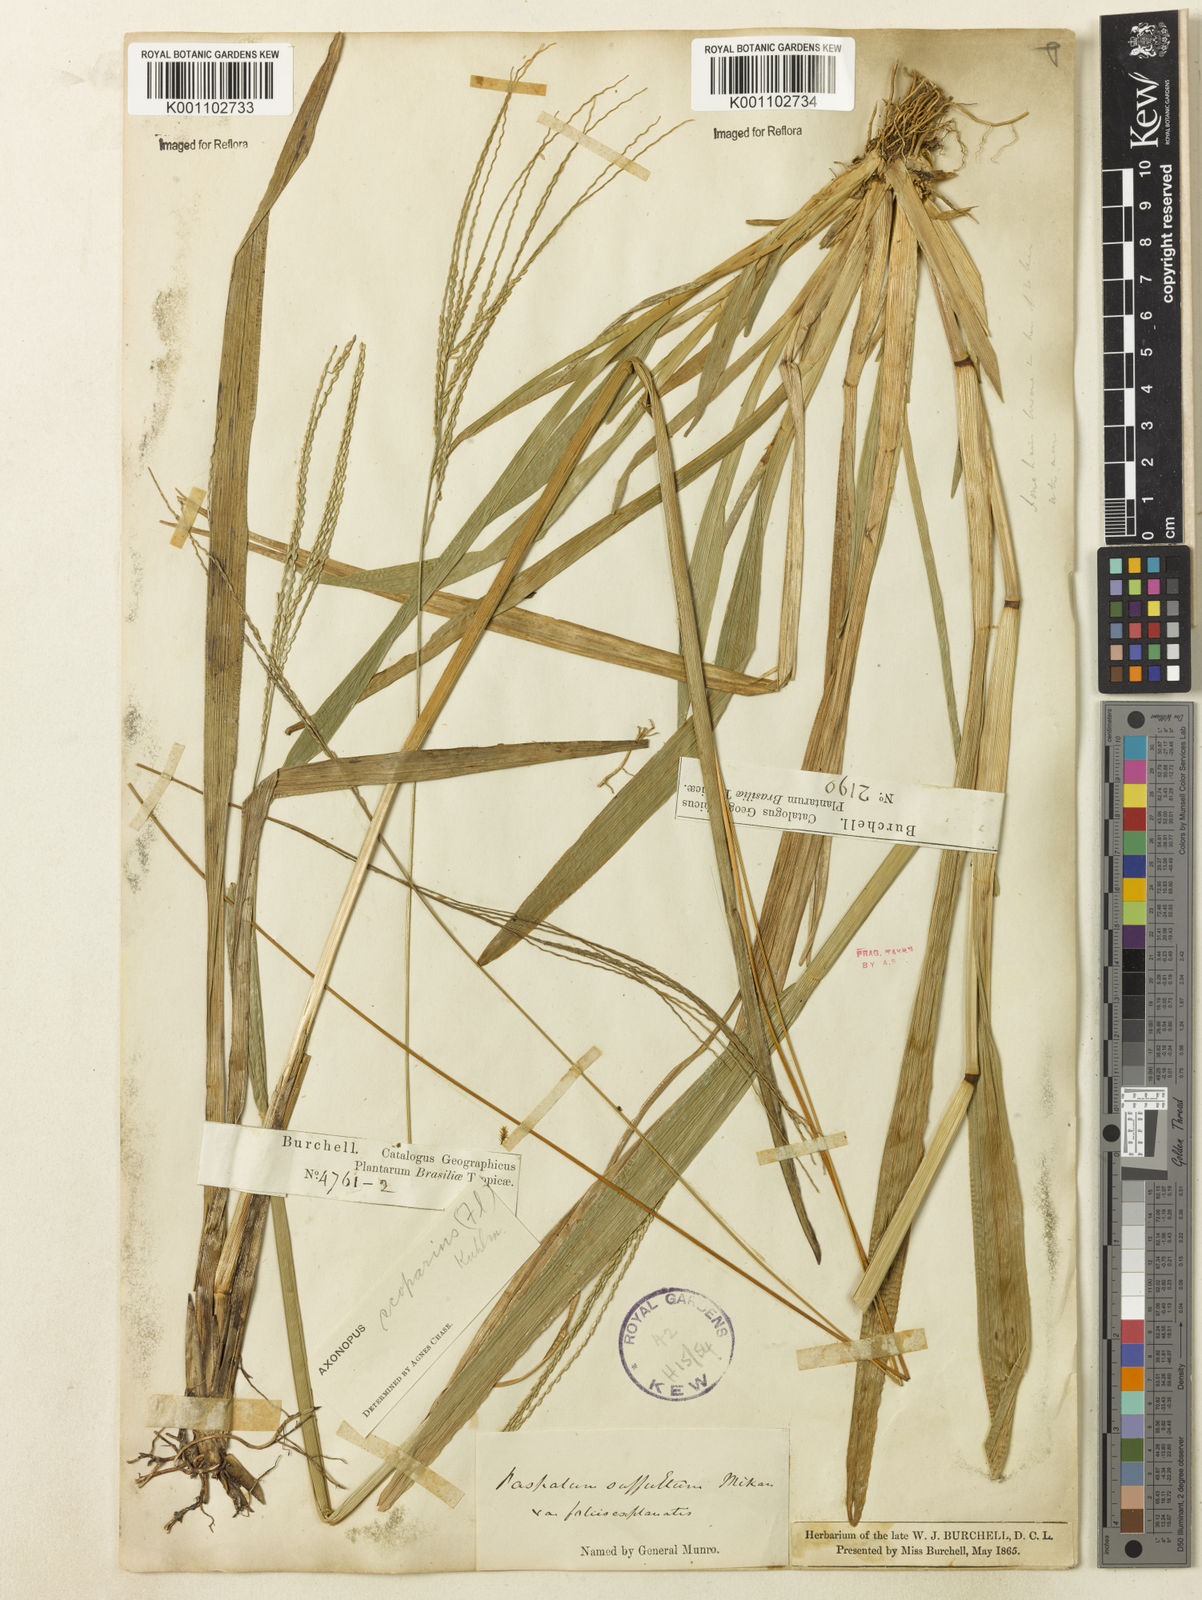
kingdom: Plantae
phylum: Tracheophyta
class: Liliopsida
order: Poales
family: Poaceae
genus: Axonopus
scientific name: Axonopus polystachyus
